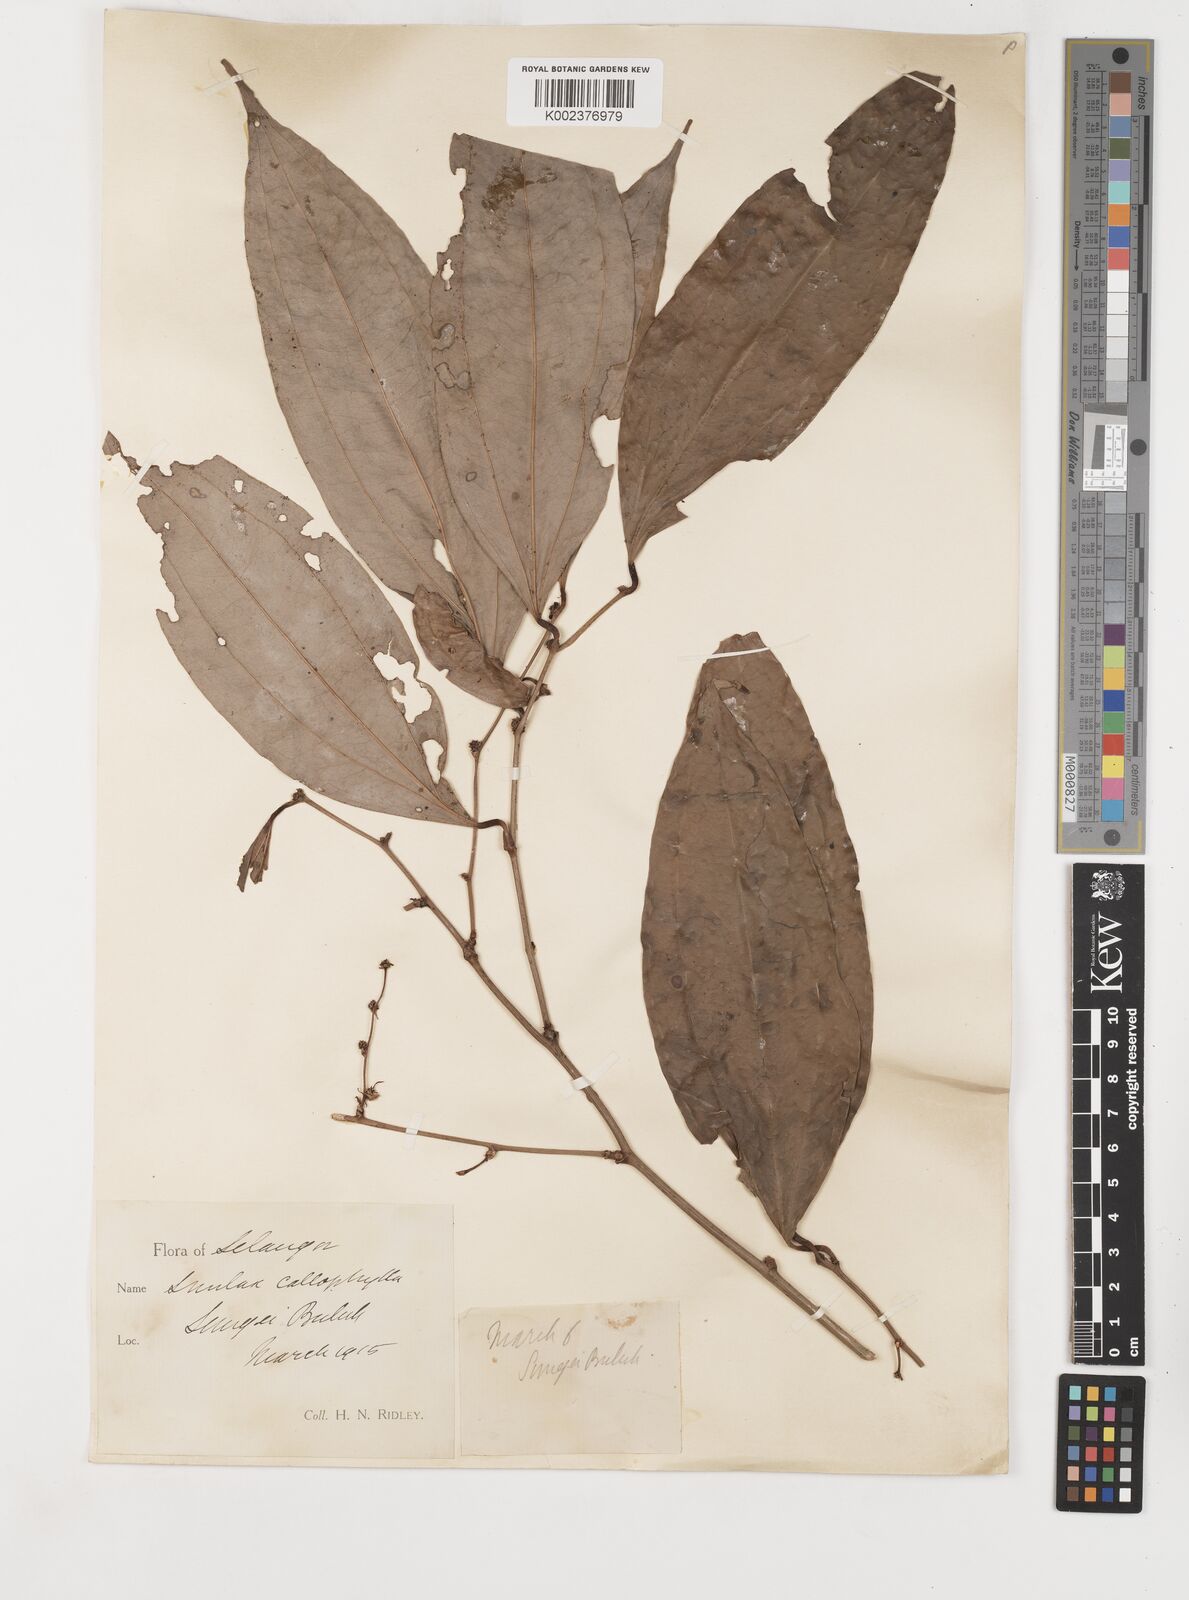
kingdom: Plantae
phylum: Tracheophyta
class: Liliopsida
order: Liliales
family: Smilacaceae
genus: Smilax
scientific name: Smilax calophylla
